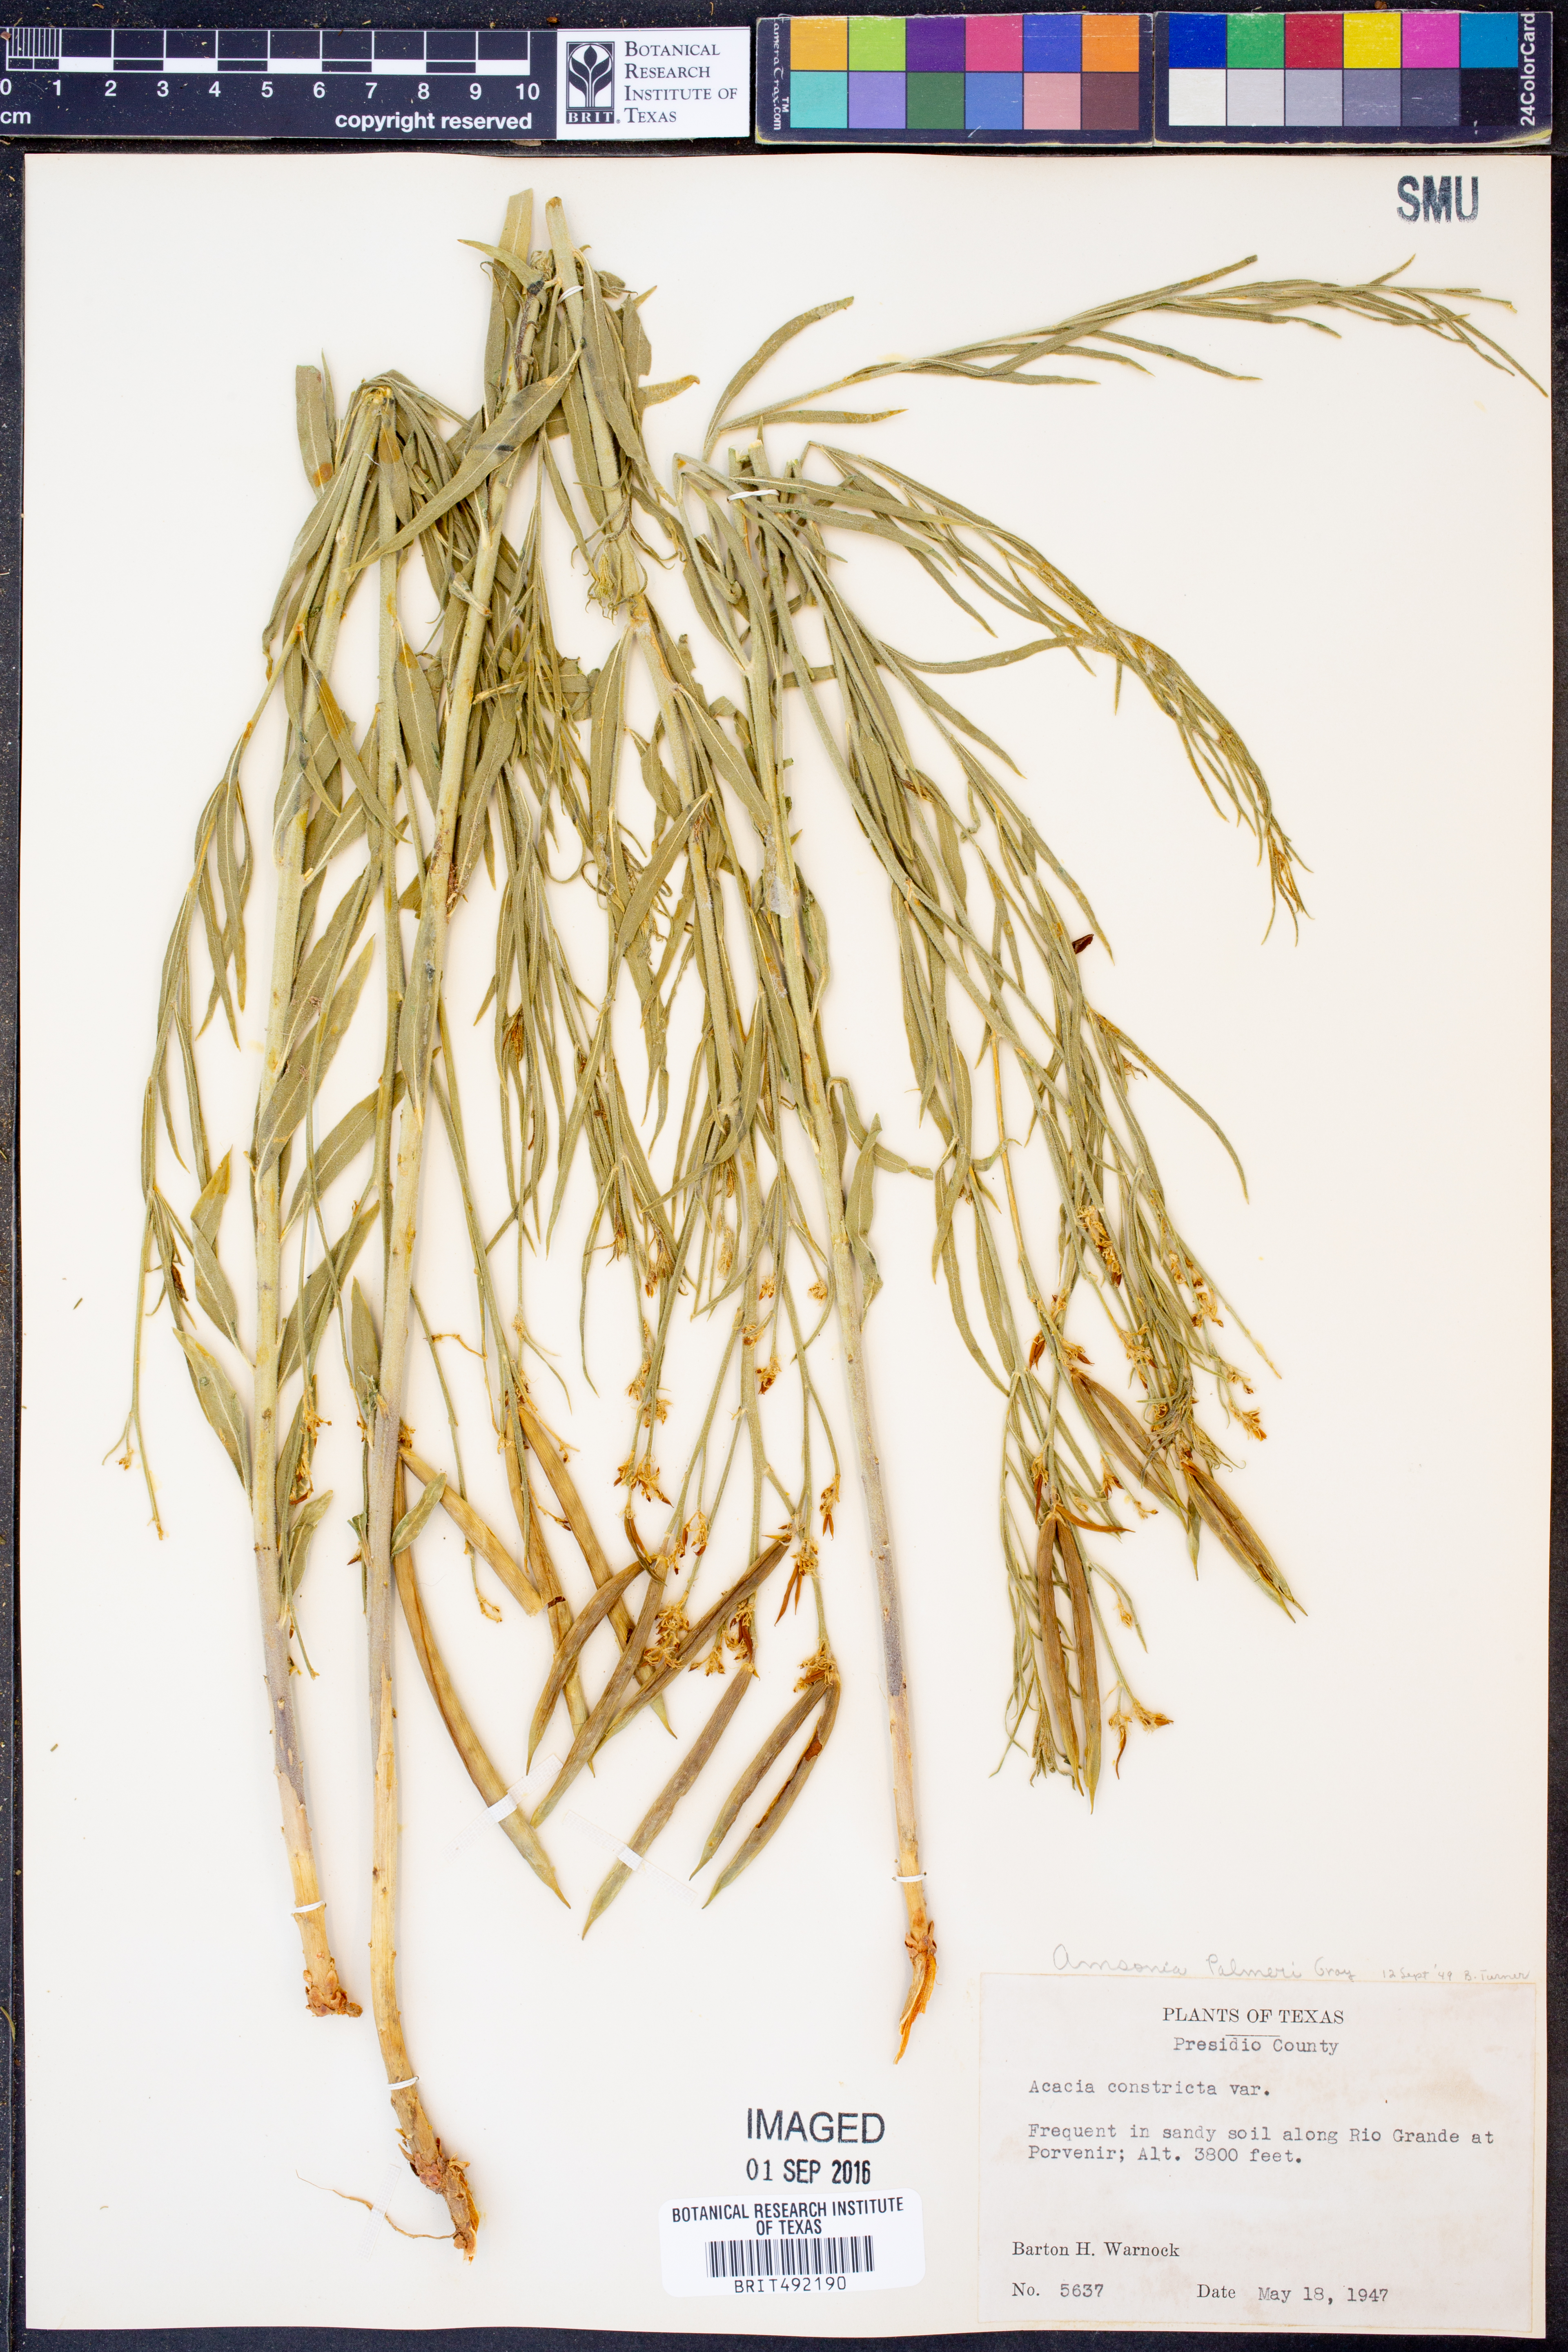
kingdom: Plantae
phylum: Tracheophyta
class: Magnoliopsida
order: Gentianales
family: Apocynaceae
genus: Amsonia
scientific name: Amsonia palmeri
